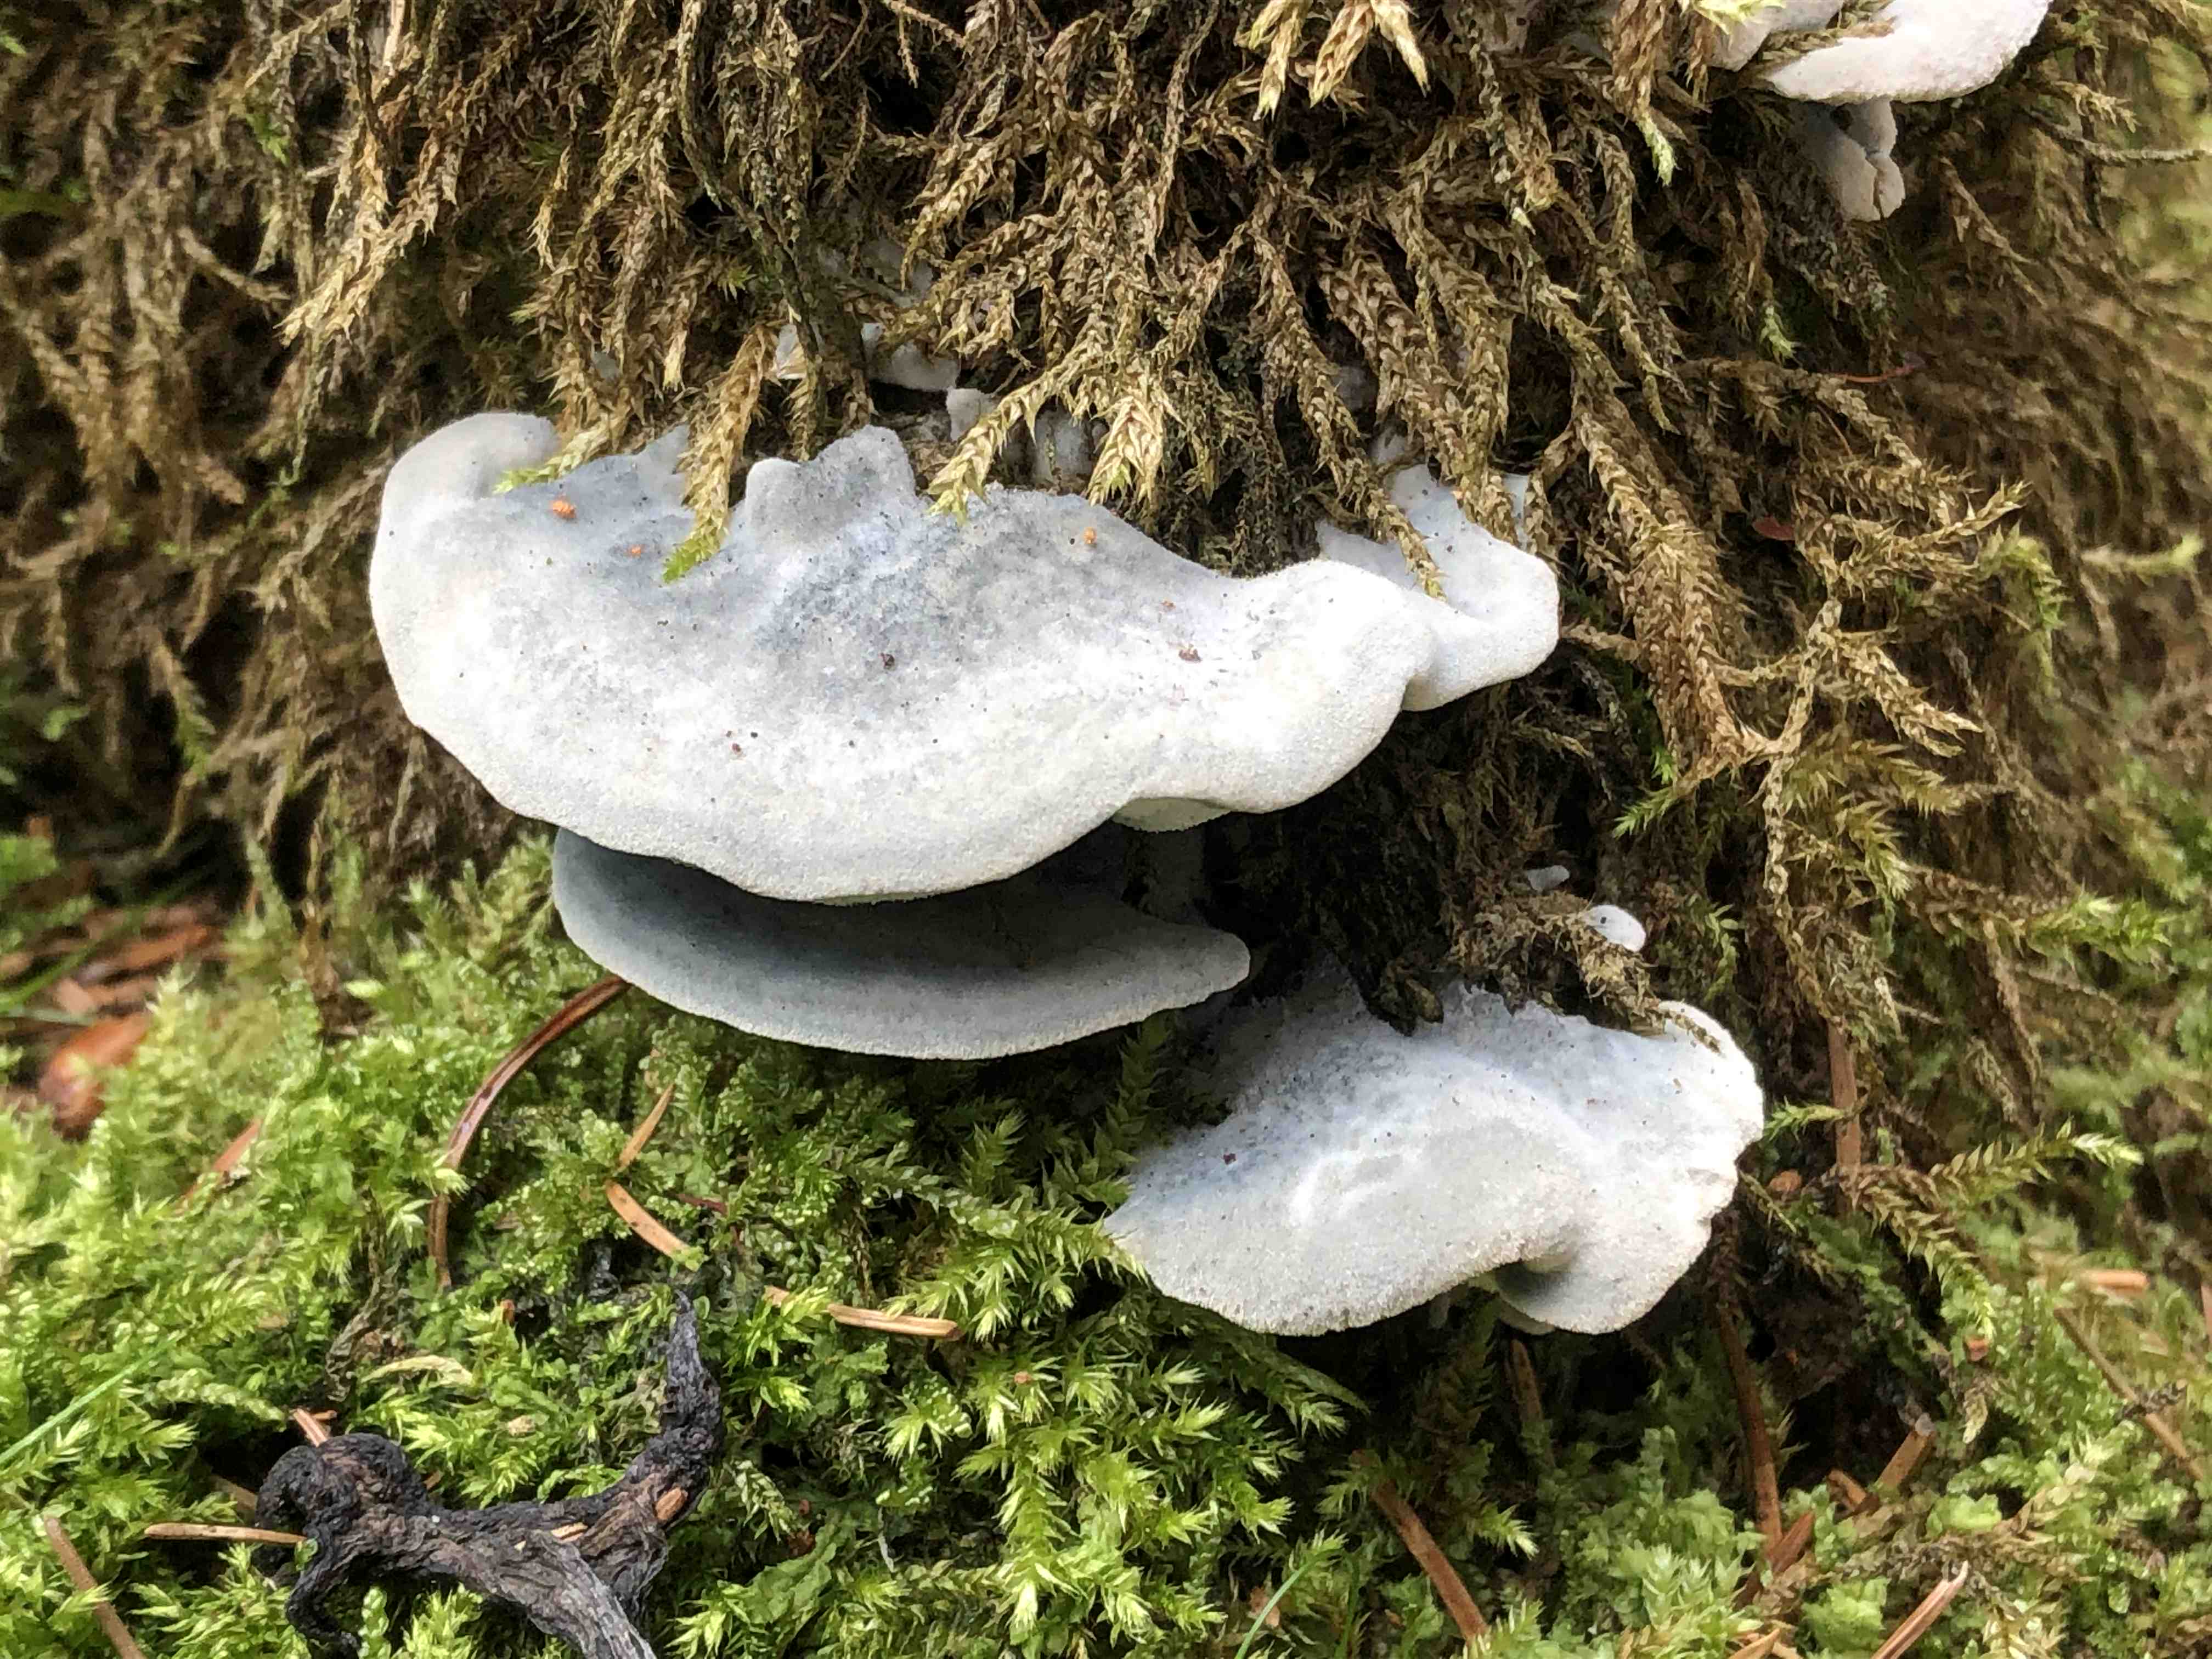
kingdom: Fungi
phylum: Basidiomycota
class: Agaricomycetes
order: Polyporales
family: Polyporaceae
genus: Cyanosporus
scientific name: Cyanosporus caesius
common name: blålig kødporesvamp
